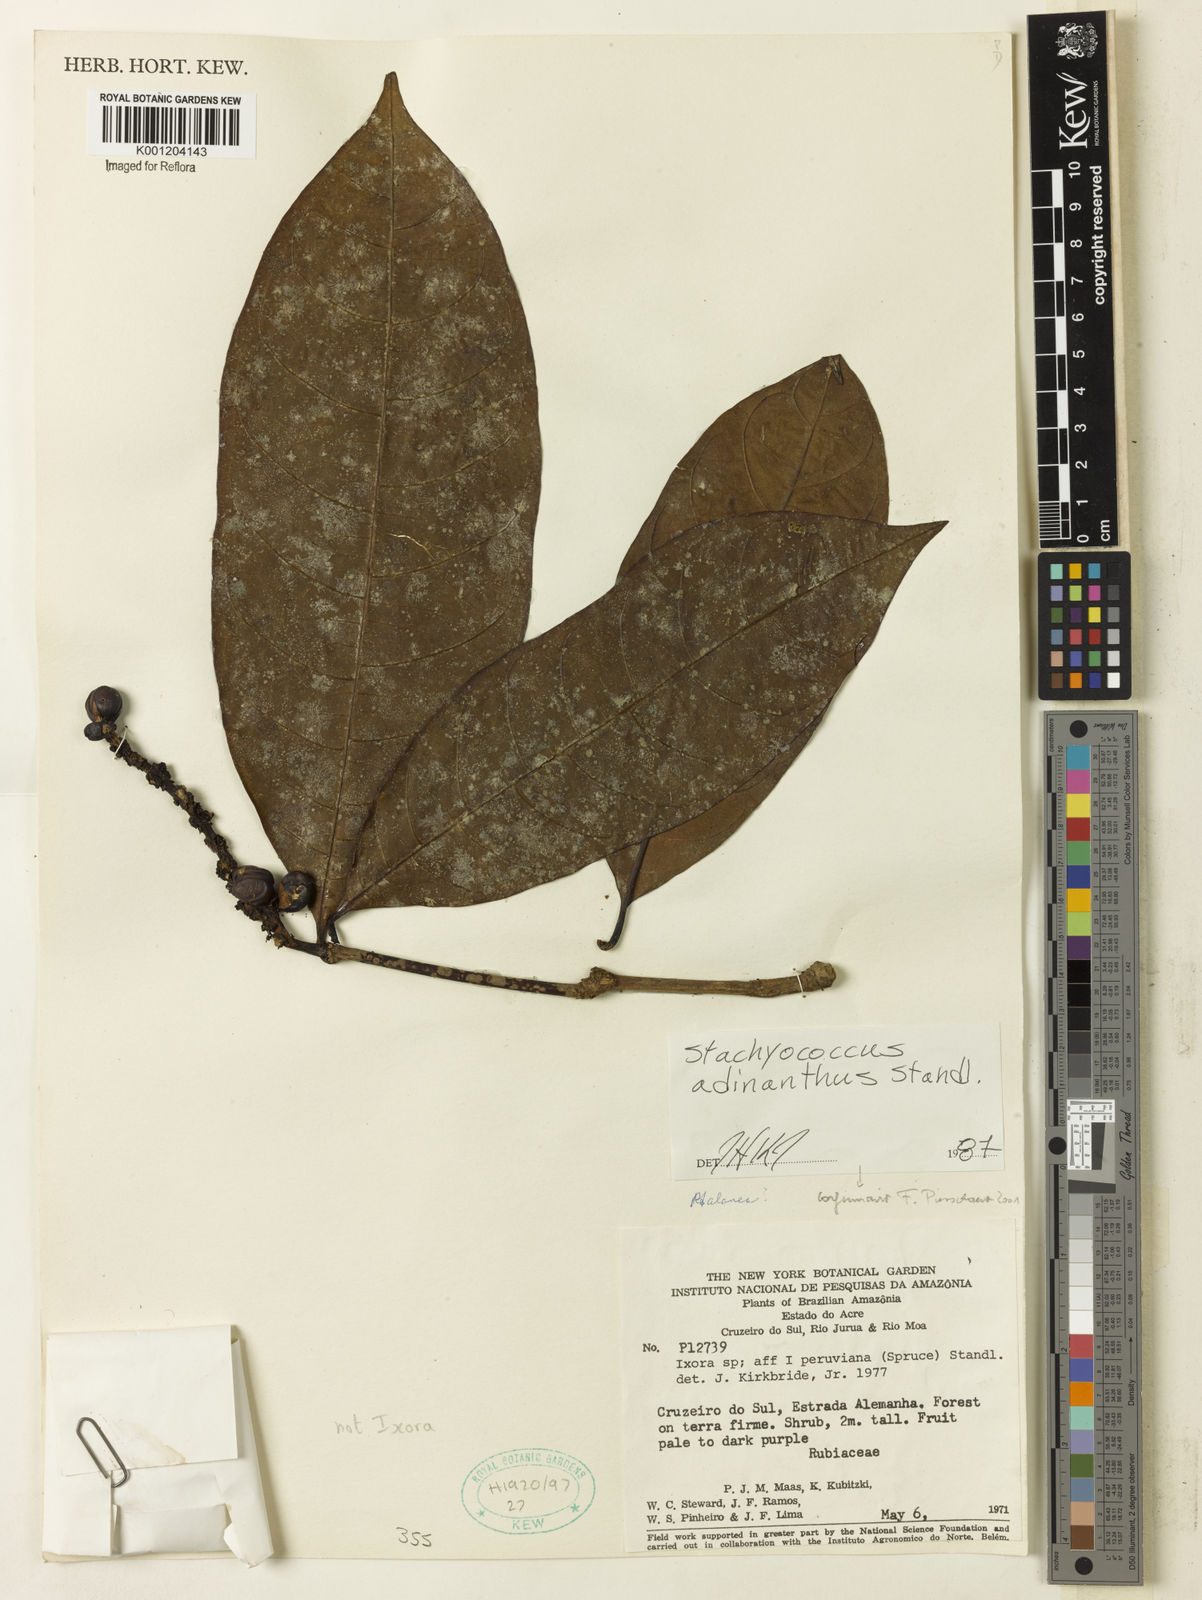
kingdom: Plantae
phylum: Tracheophyta
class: Magnoliopsida
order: Gentianales
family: Rubiaceae
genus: Carapichea
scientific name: Carapichea adinantha
